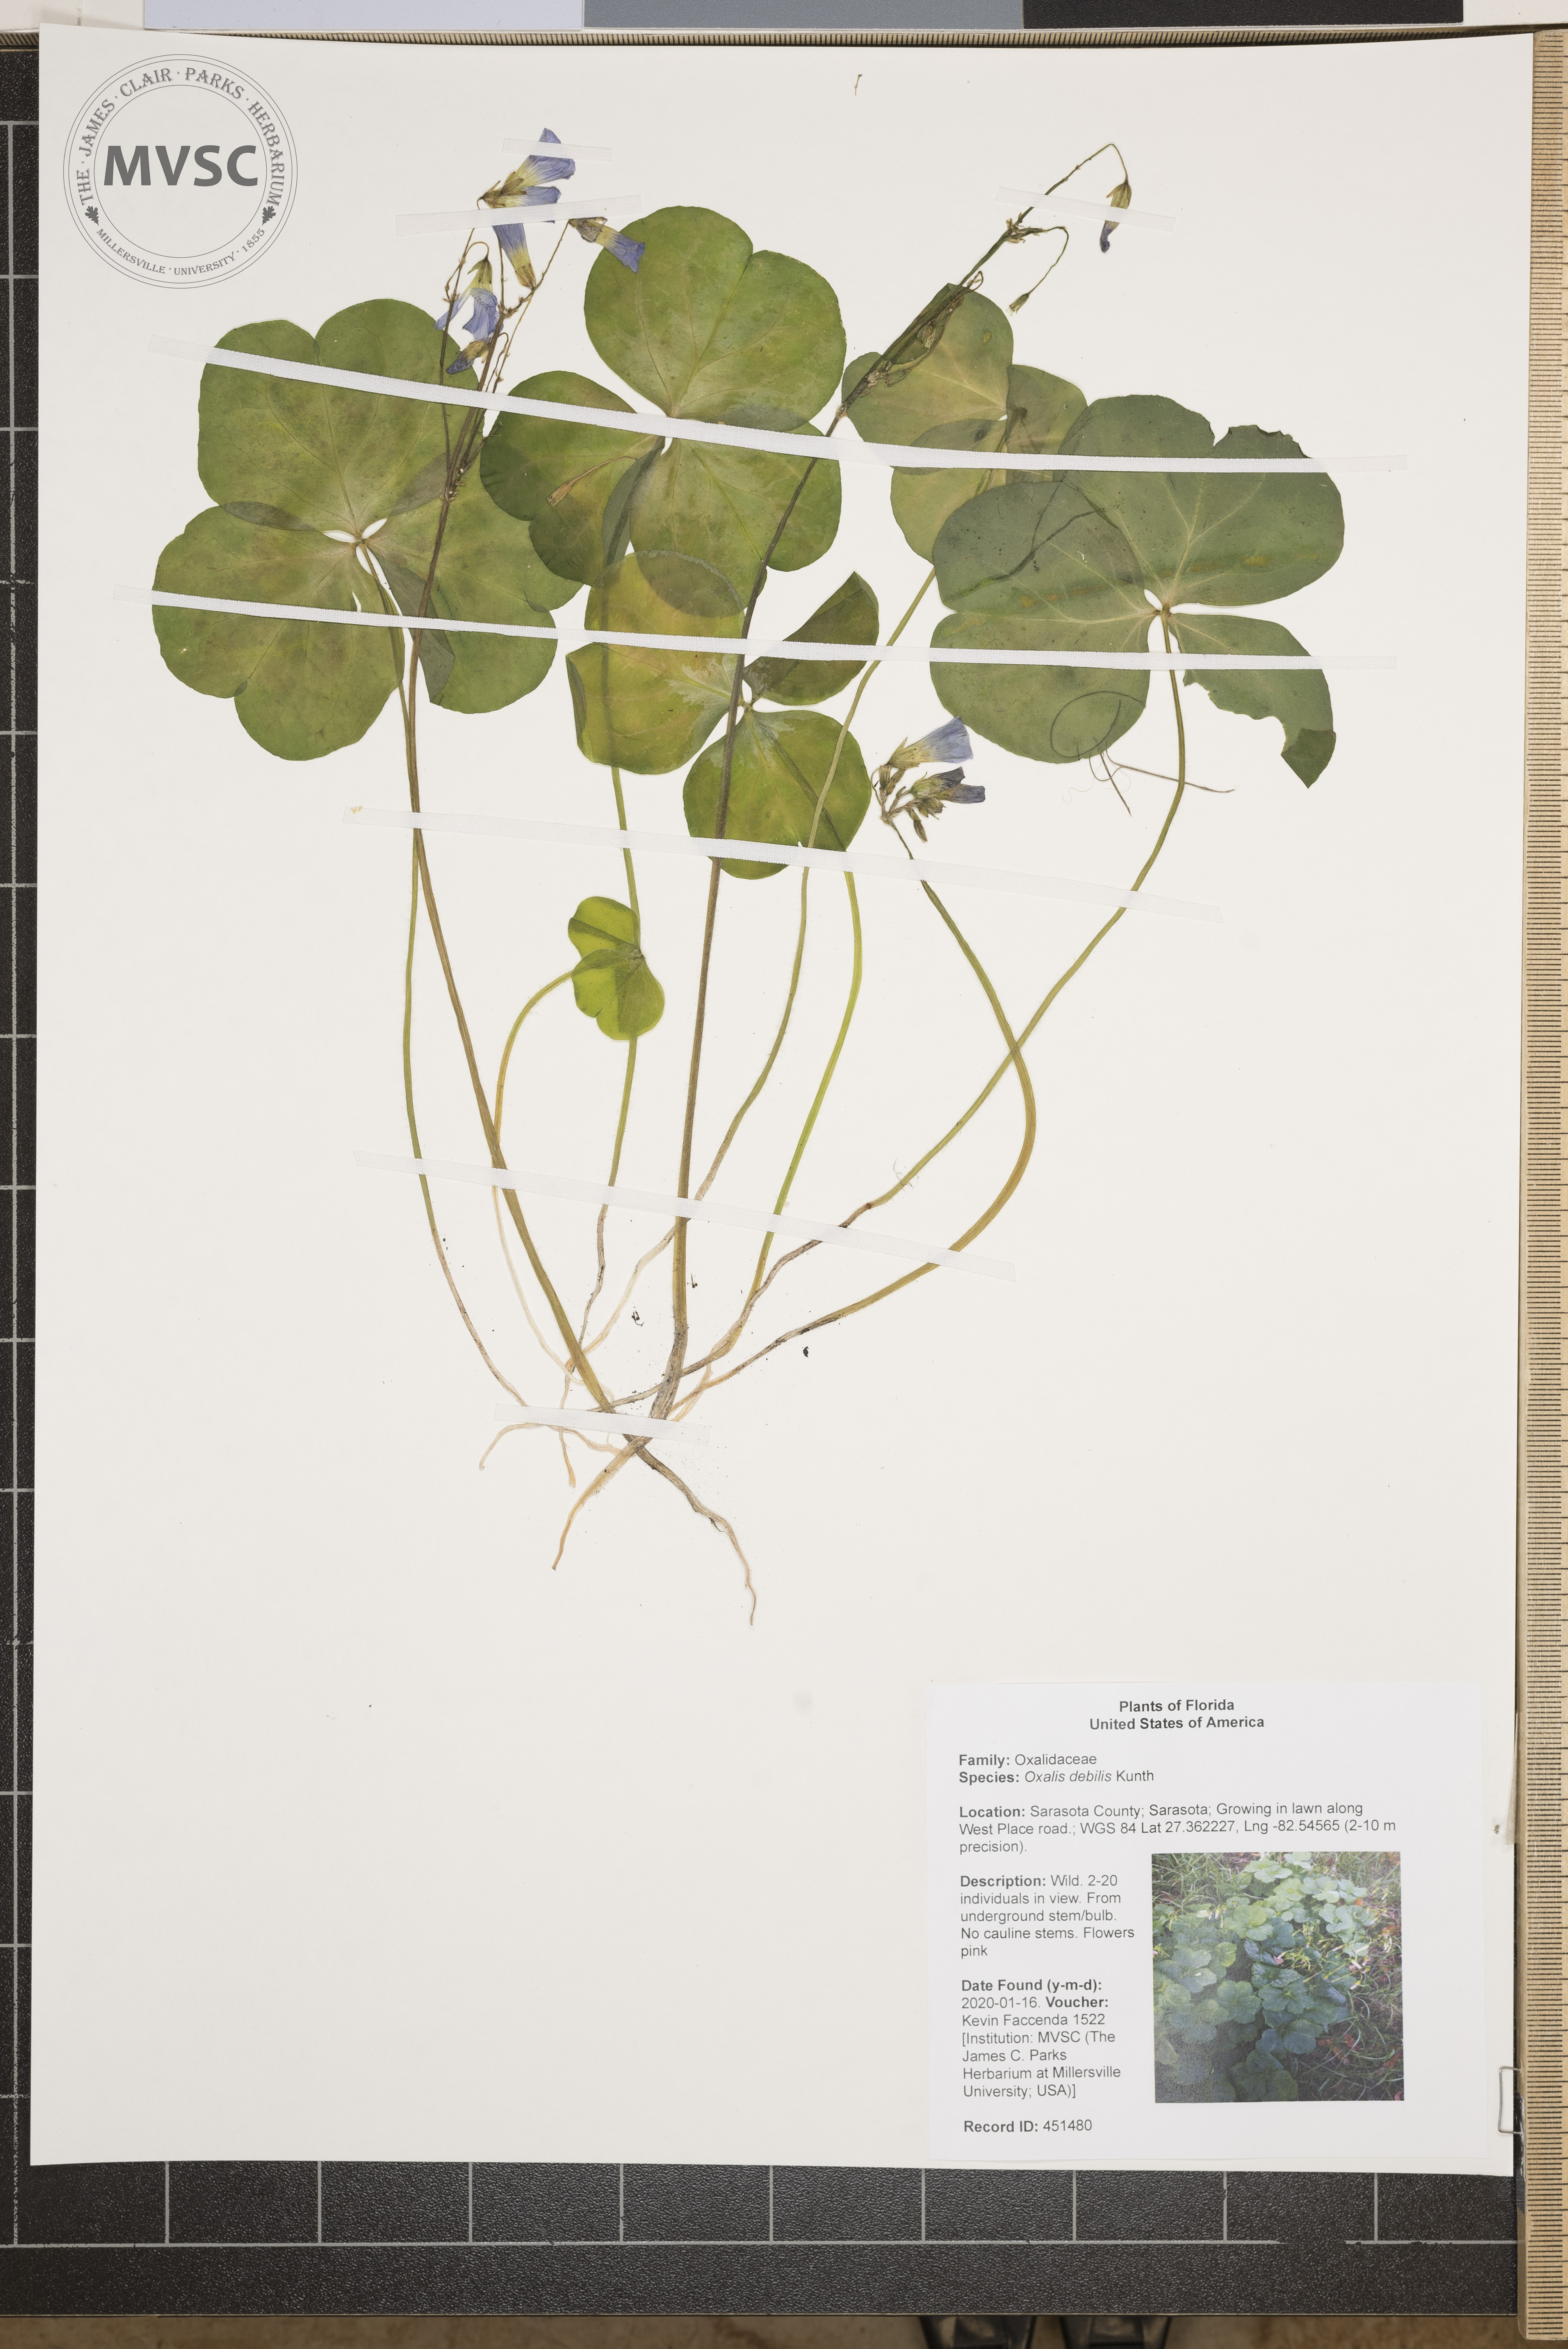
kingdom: Plantae
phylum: Tracheophyta
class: Magnoliopsida
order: Oxalidales
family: Oxalidaceae
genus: Oxalis
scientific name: Oxalis debilis
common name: Large-flowered pink-sorrel
